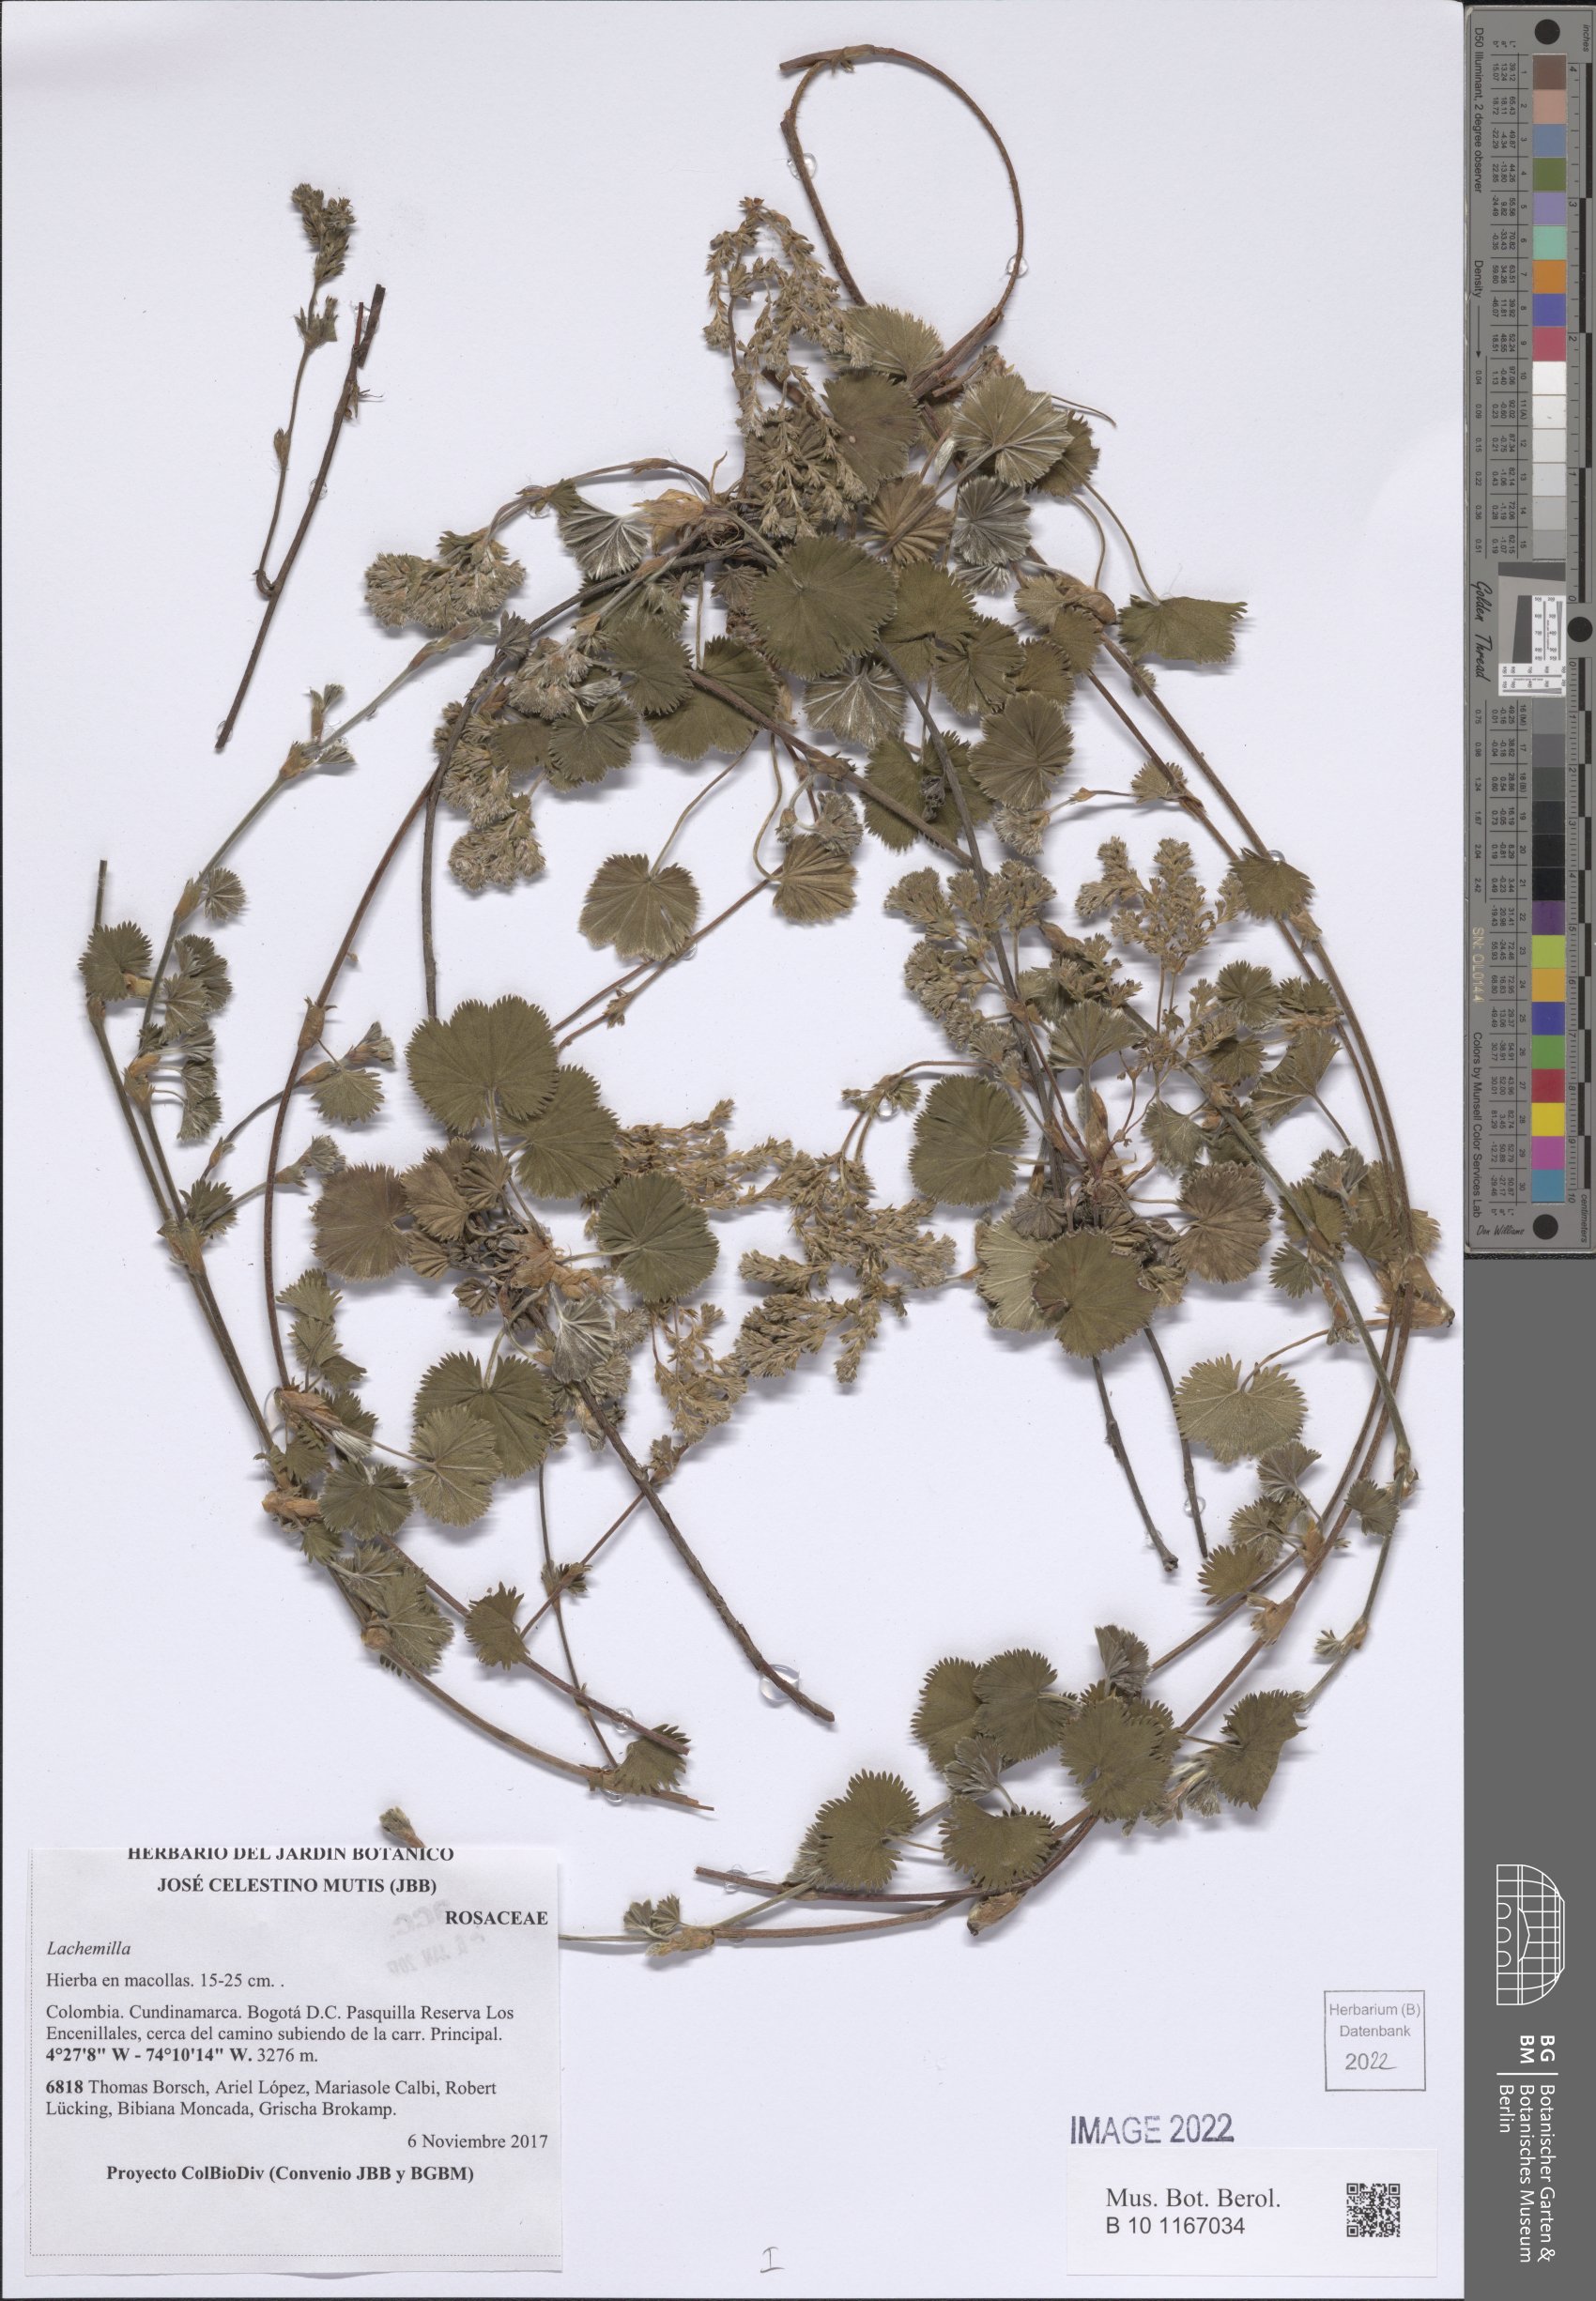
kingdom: Plantae
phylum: Tracheophyta
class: Magnoliopsida
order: Rosales
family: Rosaceae
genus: Lachemilla
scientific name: Lachemilla
